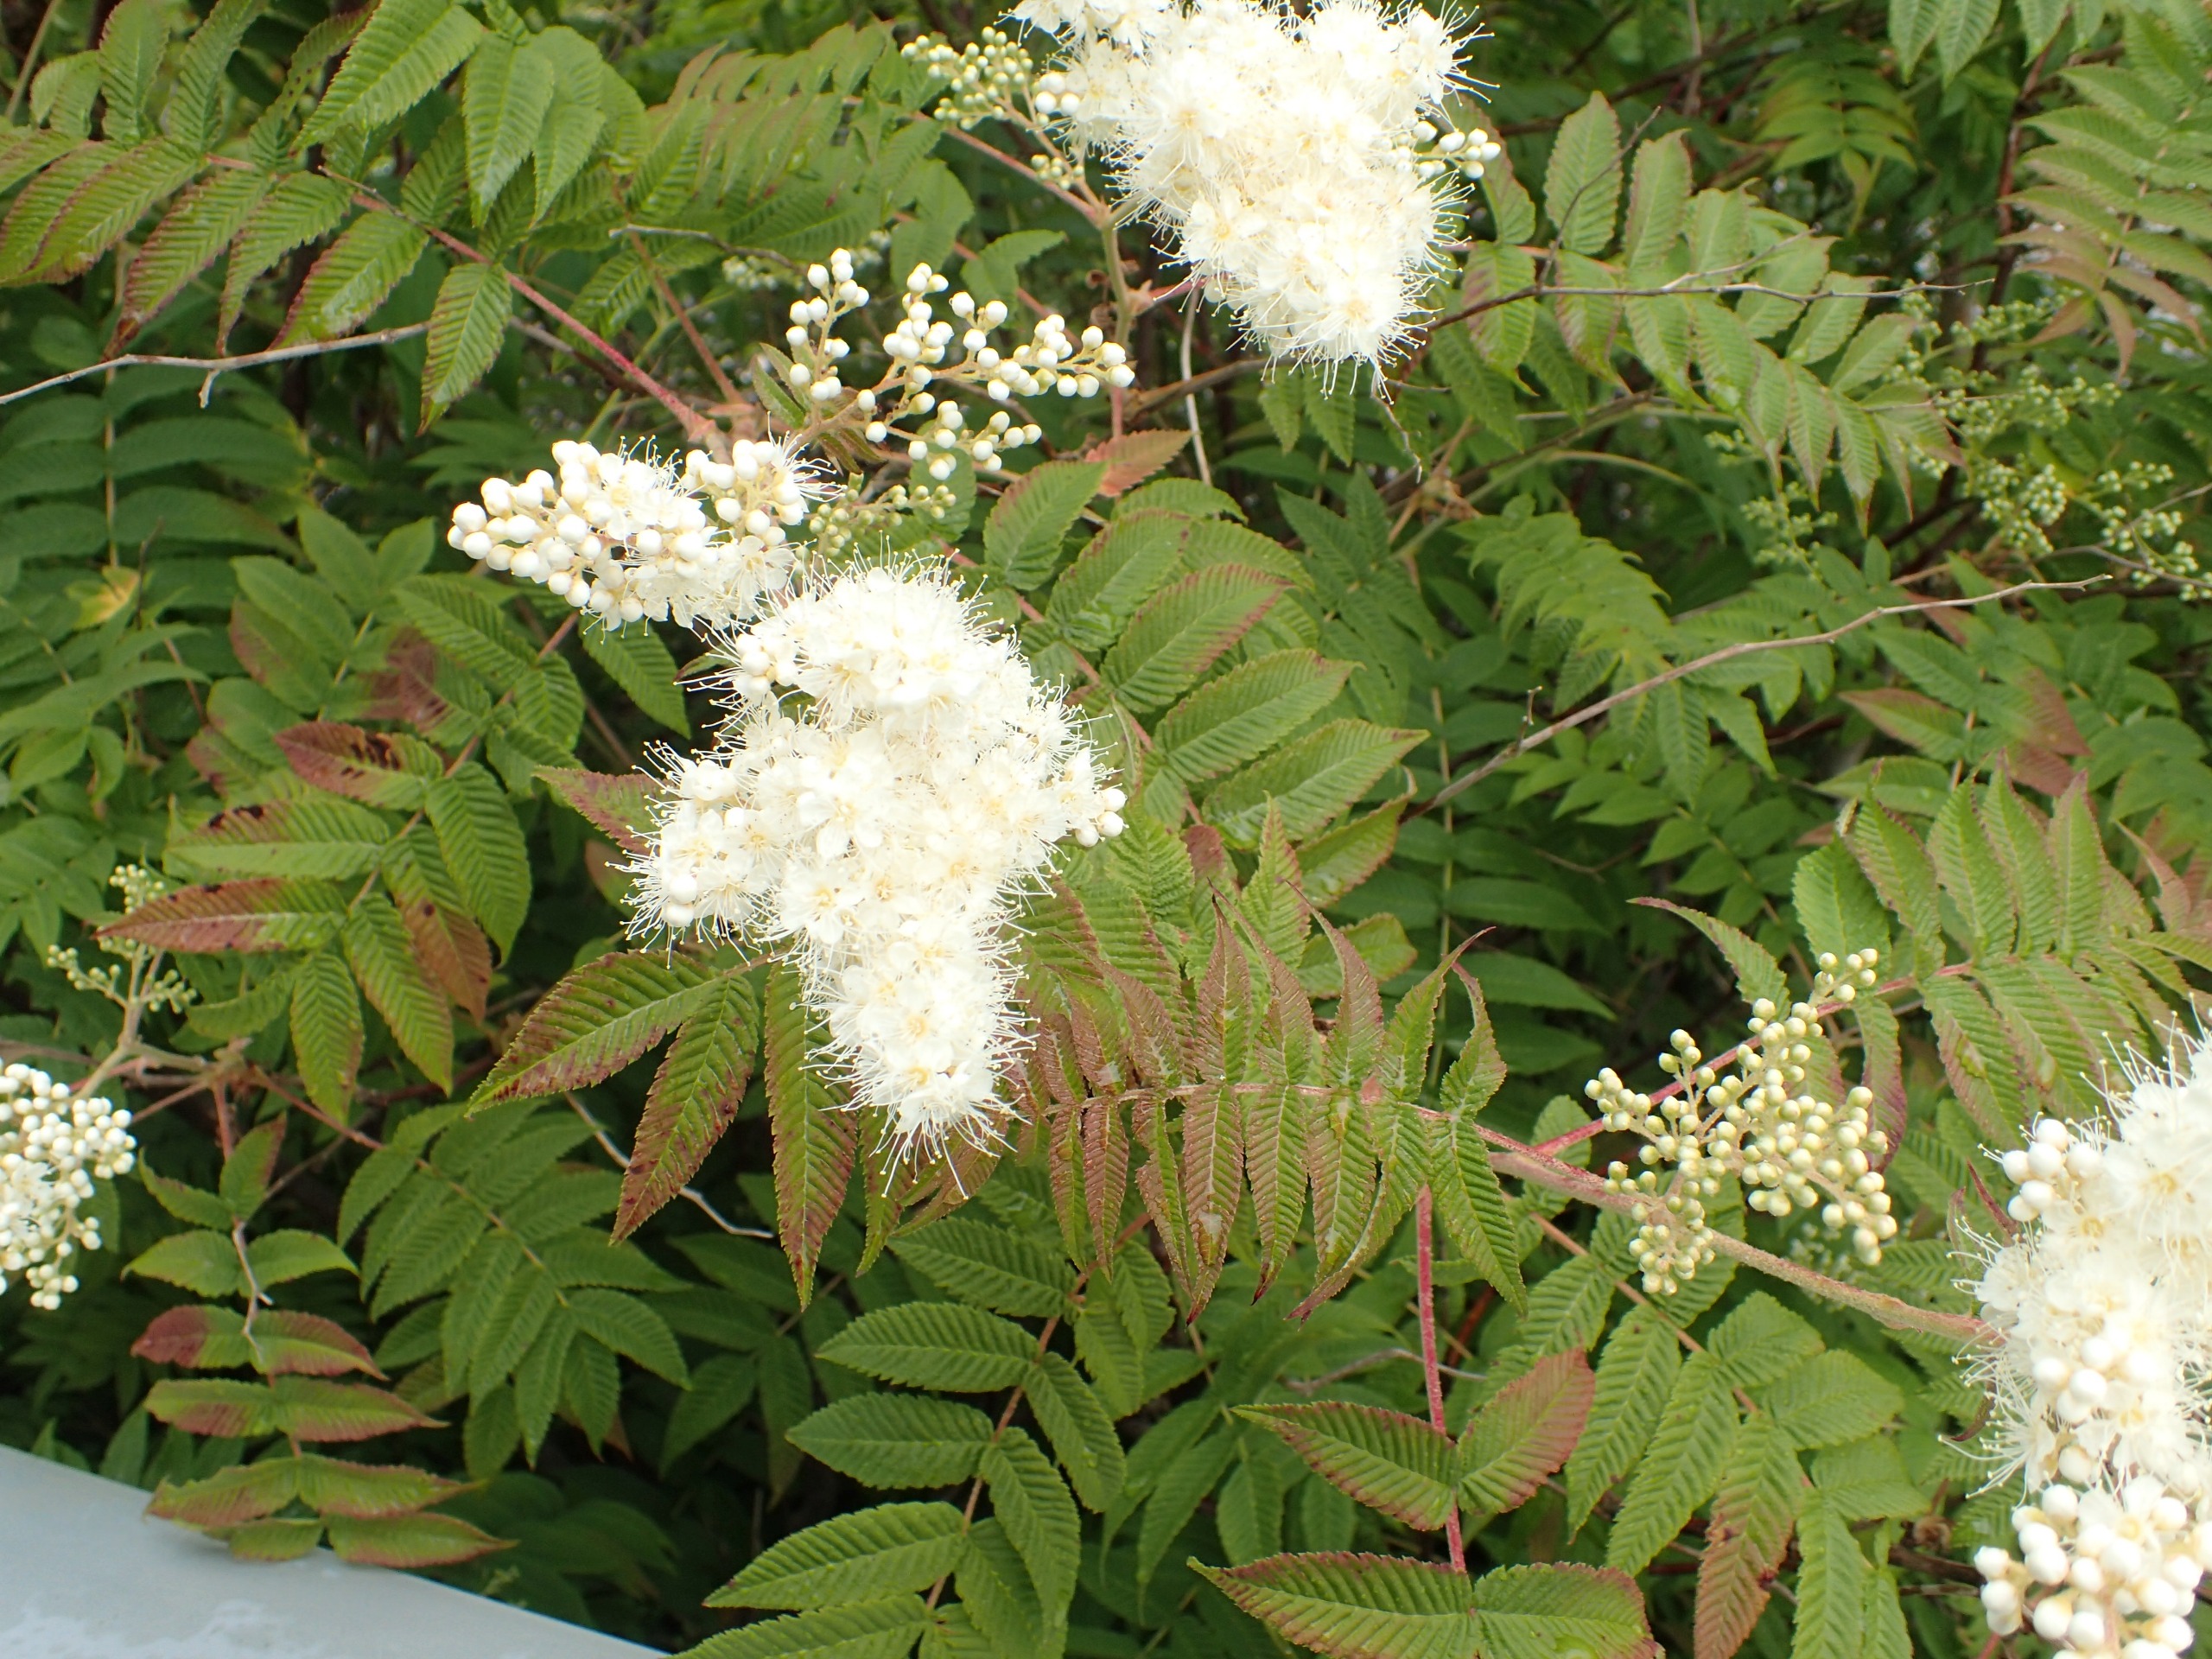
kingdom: Plantae
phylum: Tracheophyta
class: Magnoliopsida
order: Rosales
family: Rosaceae
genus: Sorbaria
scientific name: Sorbaria sorbifolia
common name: Tusindtop
